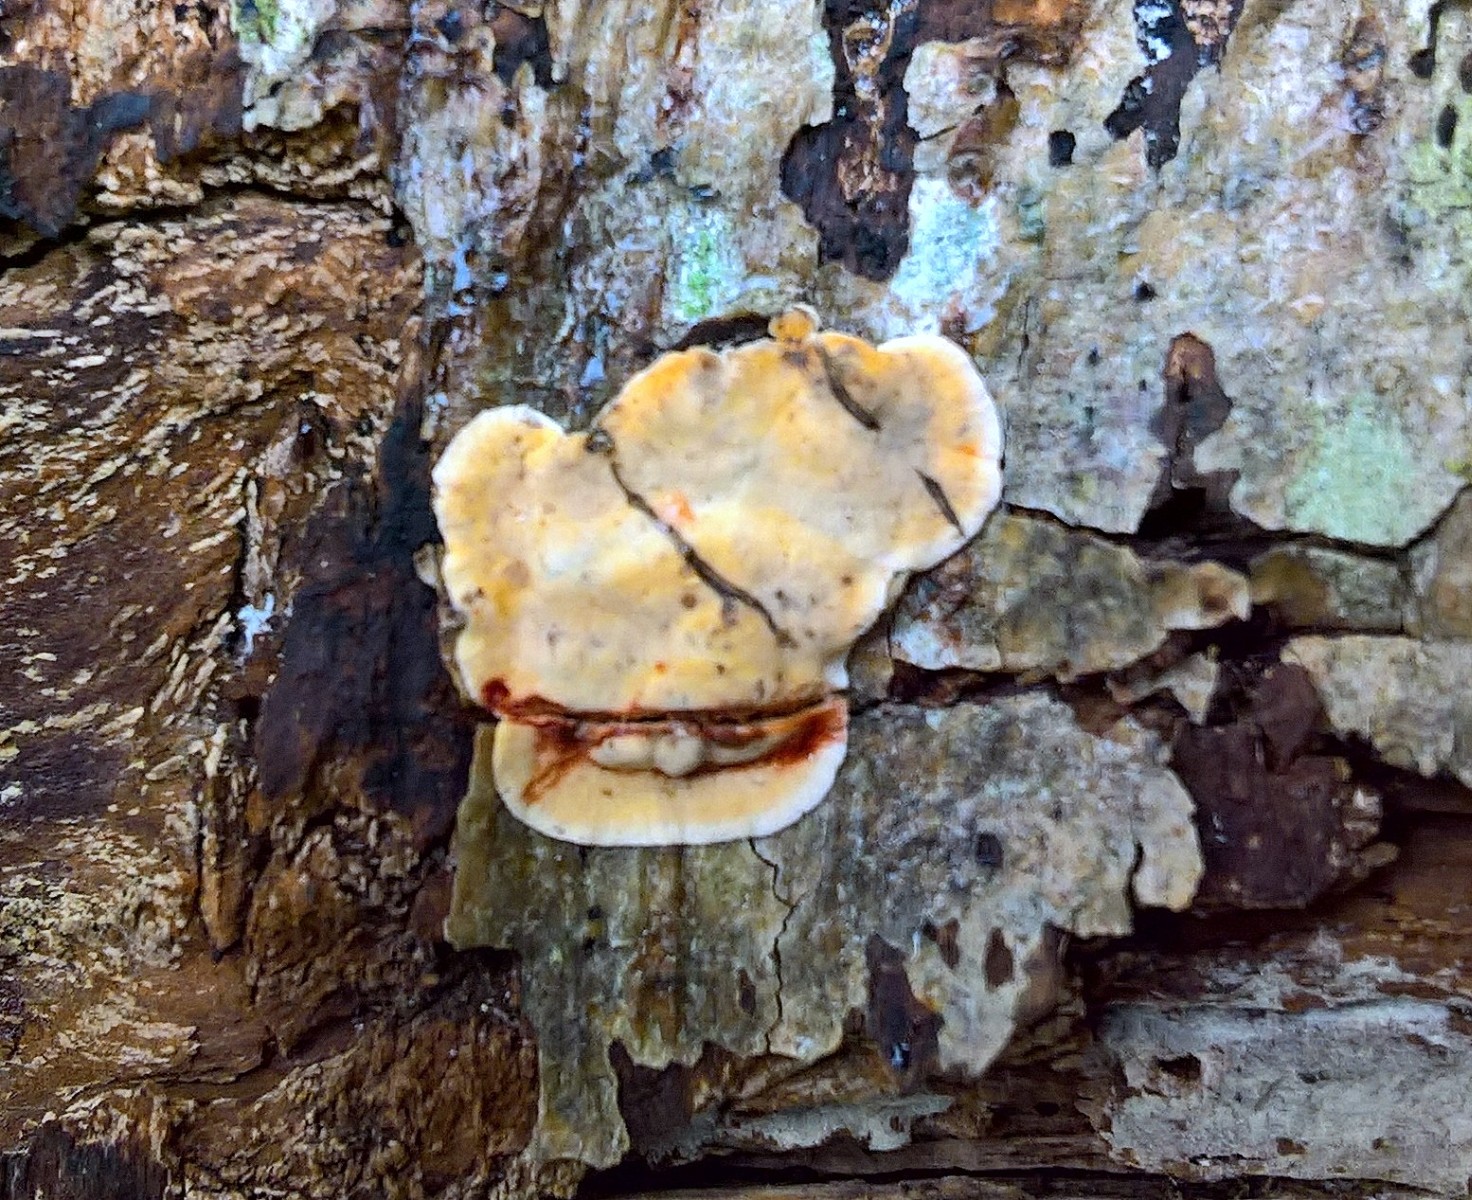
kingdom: Fungi
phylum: Basidiomycota
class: Agaricomycetes
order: Russulales
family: Stereaceae
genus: Stereum
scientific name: Stereum rugosum
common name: rynket lædersvamp
